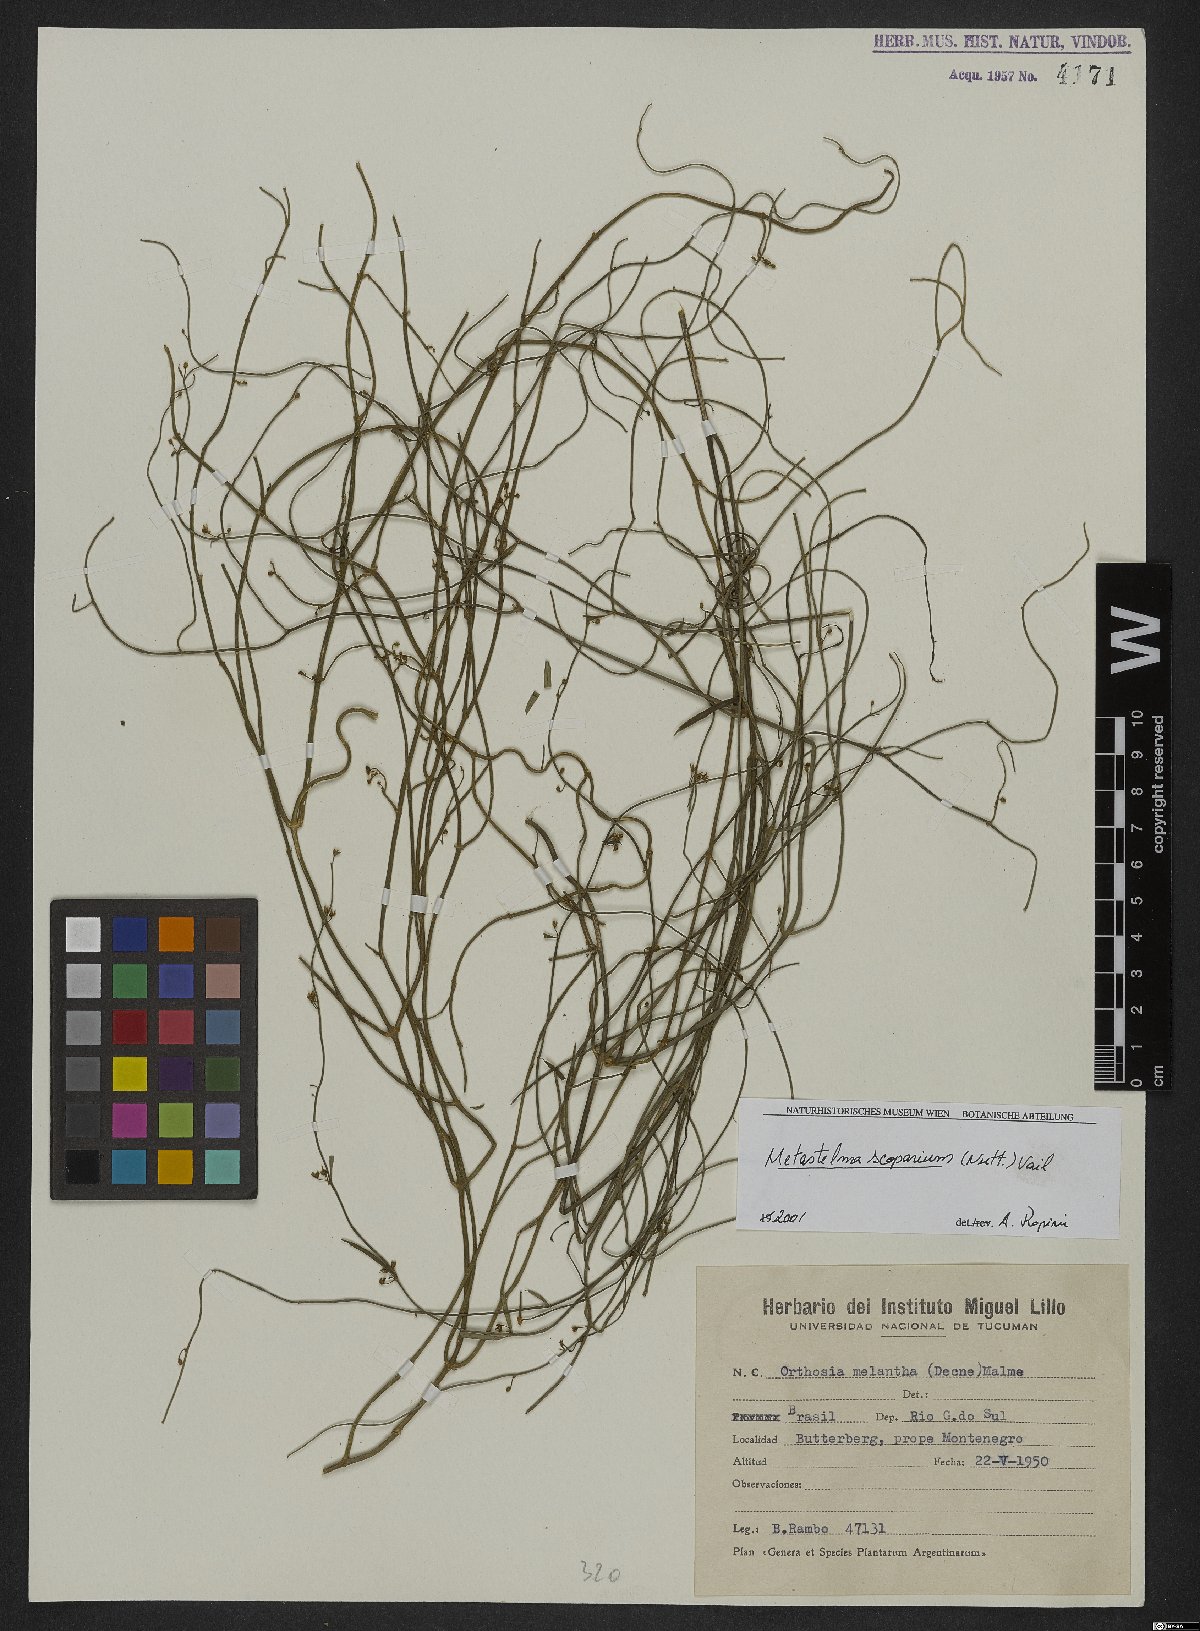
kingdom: Plantae
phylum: Tracheophyta
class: Magnoliopsida
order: Gentianales
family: Apocynaceae
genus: Orthosia
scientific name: Orthosia scoparia
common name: Leafless swallow-wort
